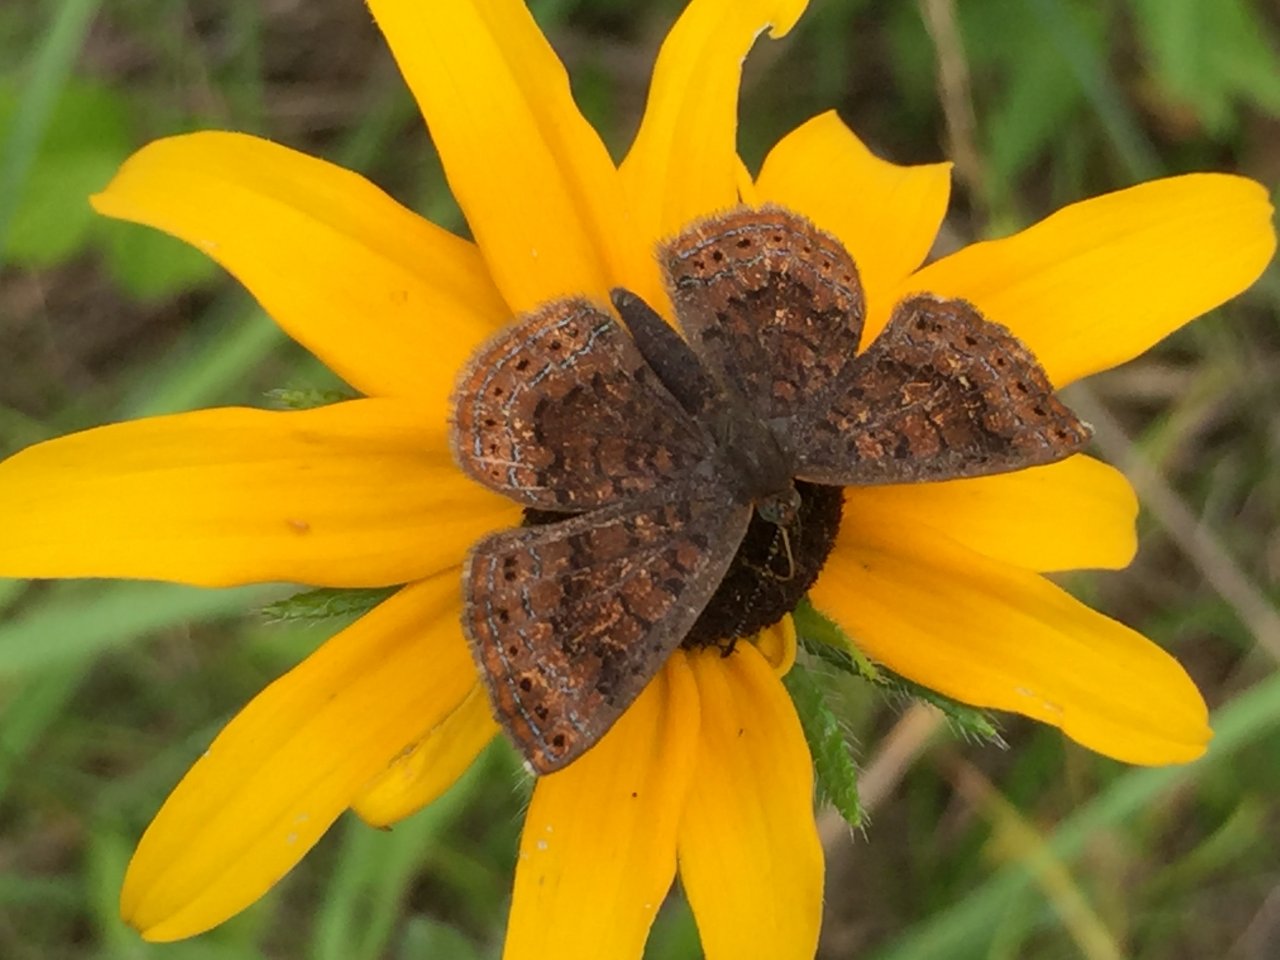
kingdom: Animalia
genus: Calephelis
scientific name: Calephelis borealis
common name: Northern Metalmark
